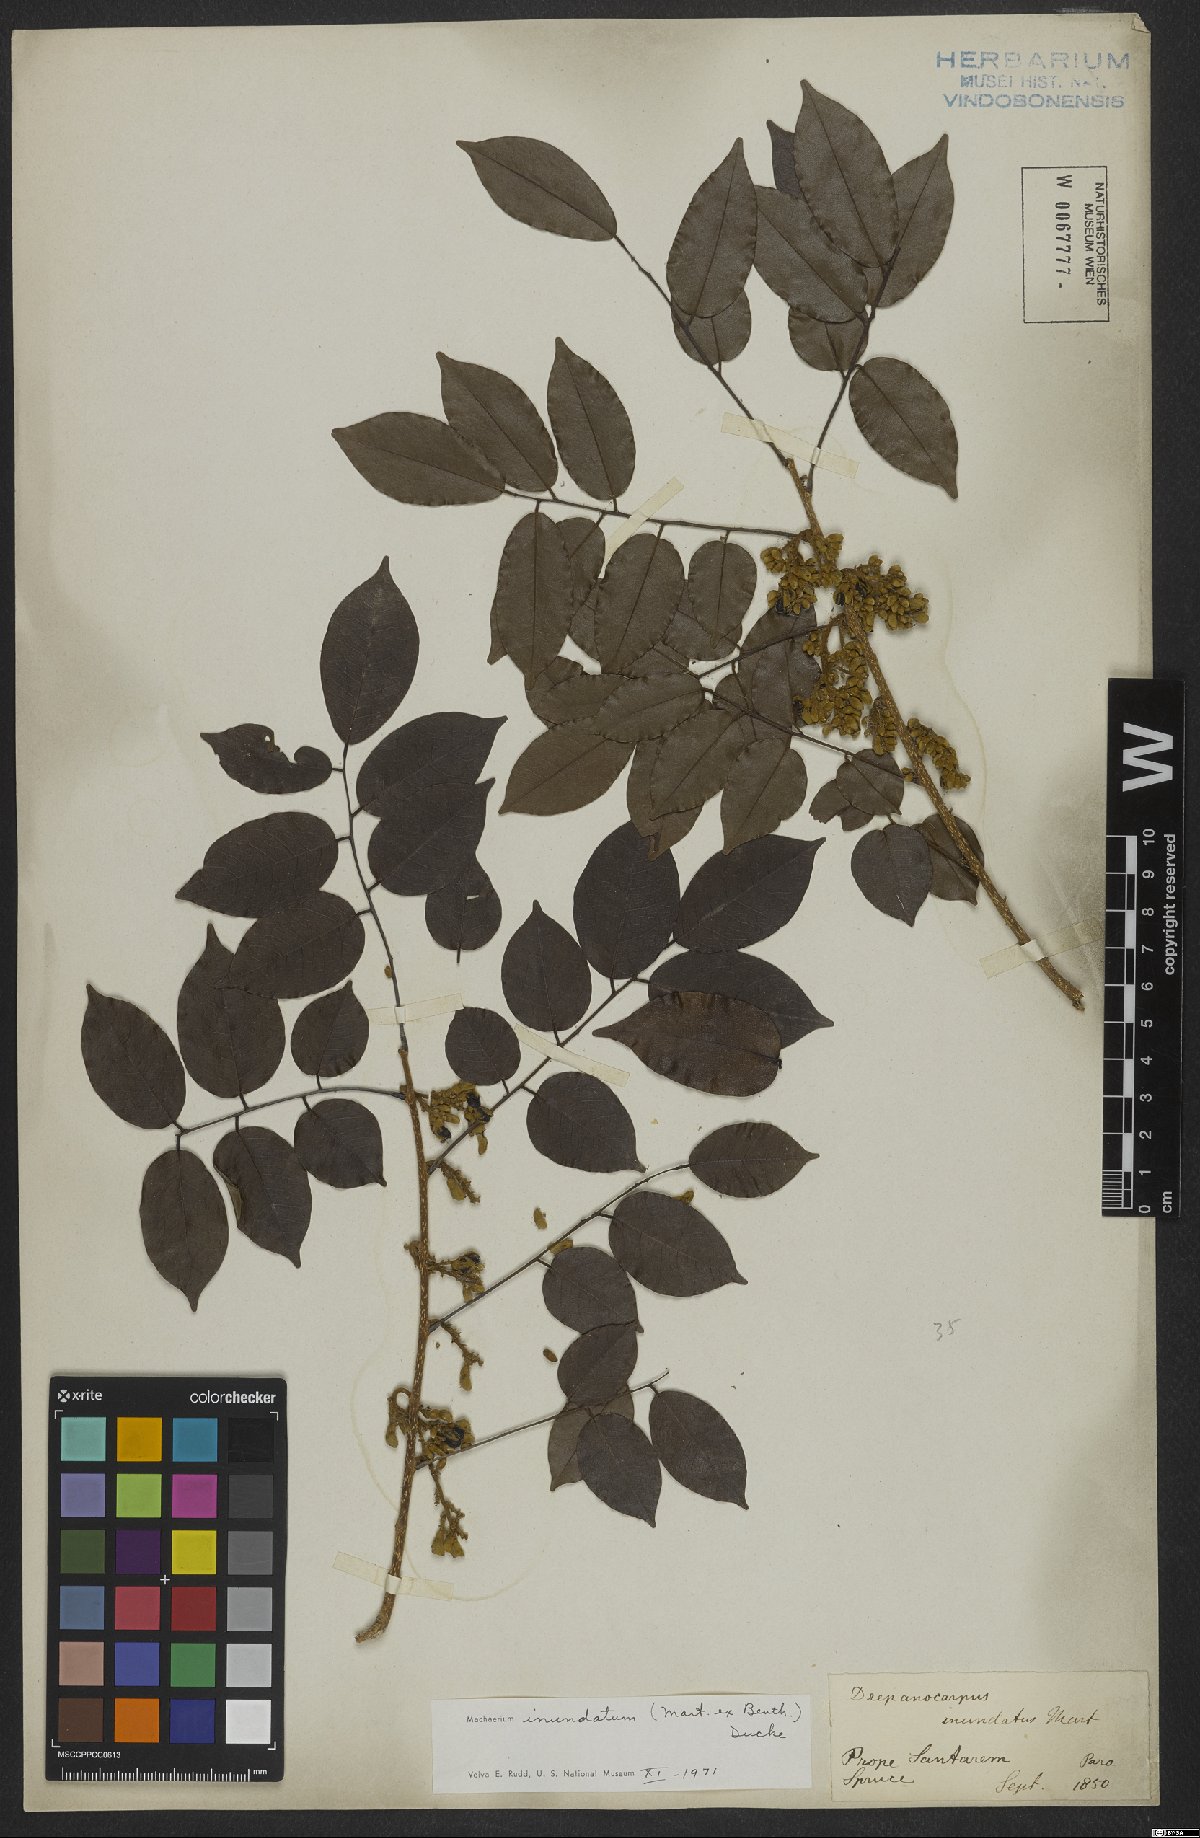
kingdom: Plantae
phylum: Tracheophyta
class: Magnoliopsida
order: Fabales
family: Fabaceae
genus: Machaerium
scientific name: Machaerium inundatum
